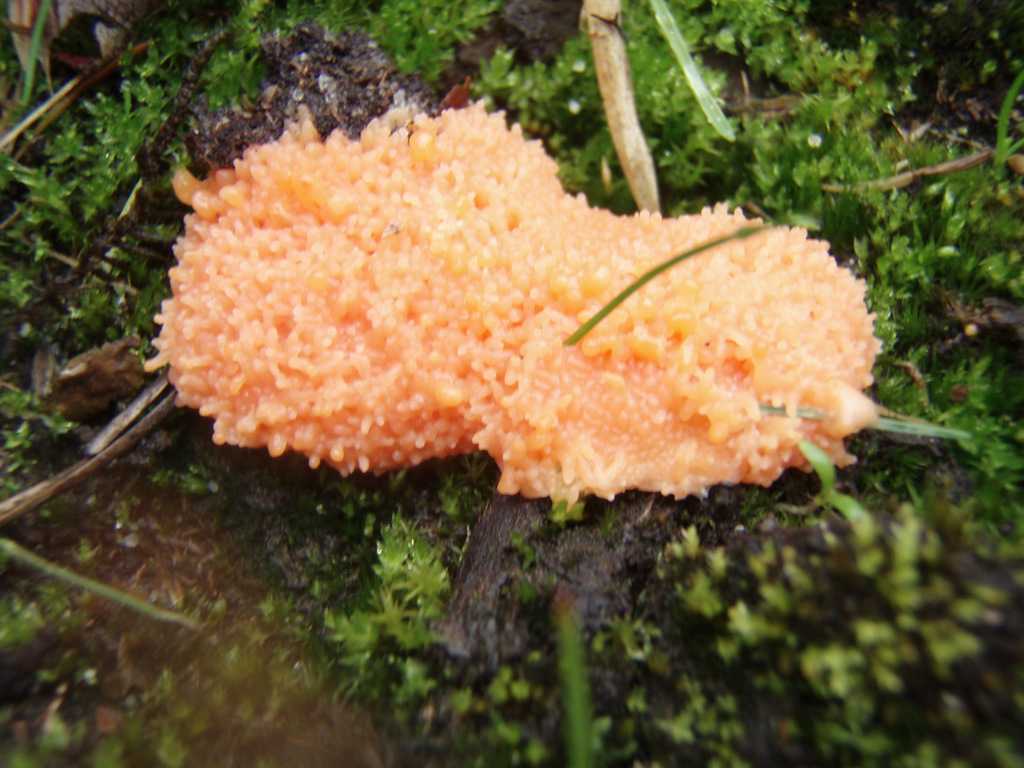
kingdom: Protozoa
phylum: Mycetozoa
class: Myxomycetes
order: Cribrariales
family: Tubiferaceae
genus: Tubifera
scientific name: Tubifera ferruginosa
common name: kanel-støvrør
